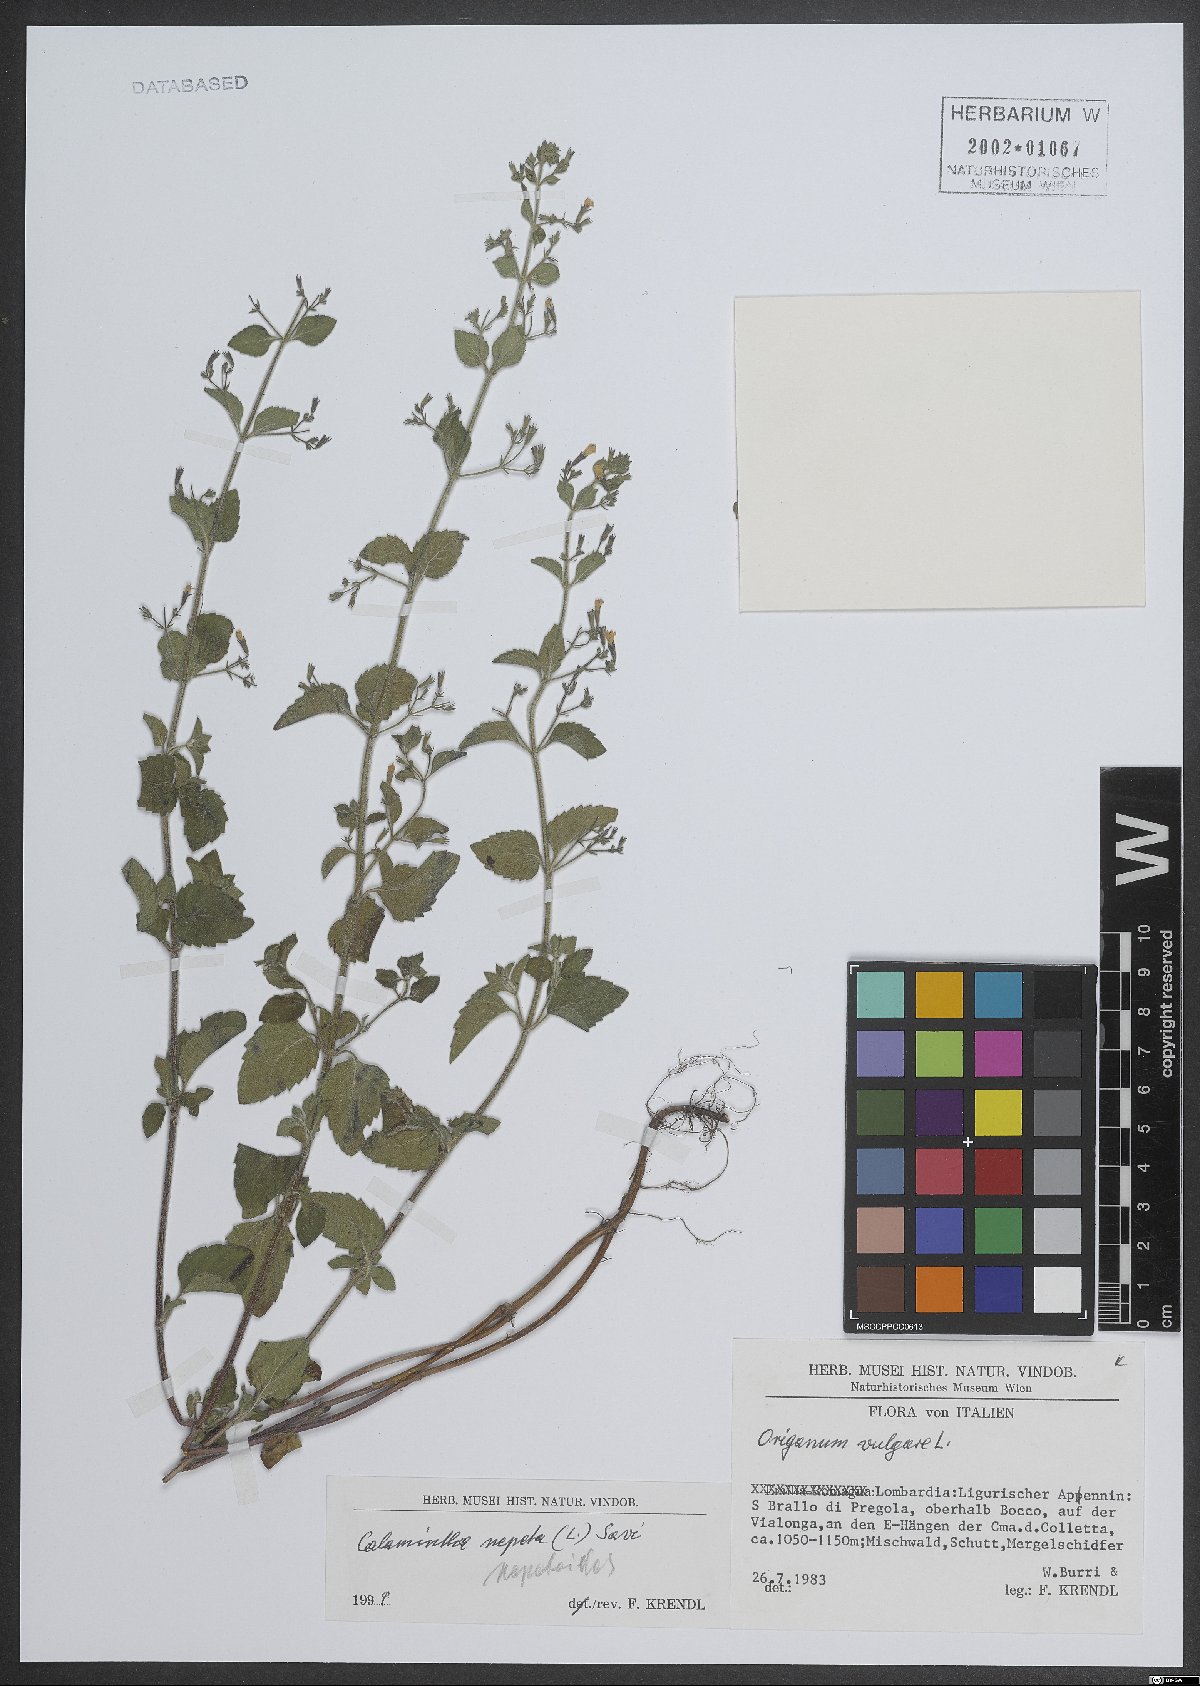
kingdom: Plantae
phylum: Tracheophyta
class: Magnoliopsida
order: Lamiales
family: Lamiaceae
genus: Clinopodium
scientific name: Clinopodium nepeta
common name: Lesser calamint
